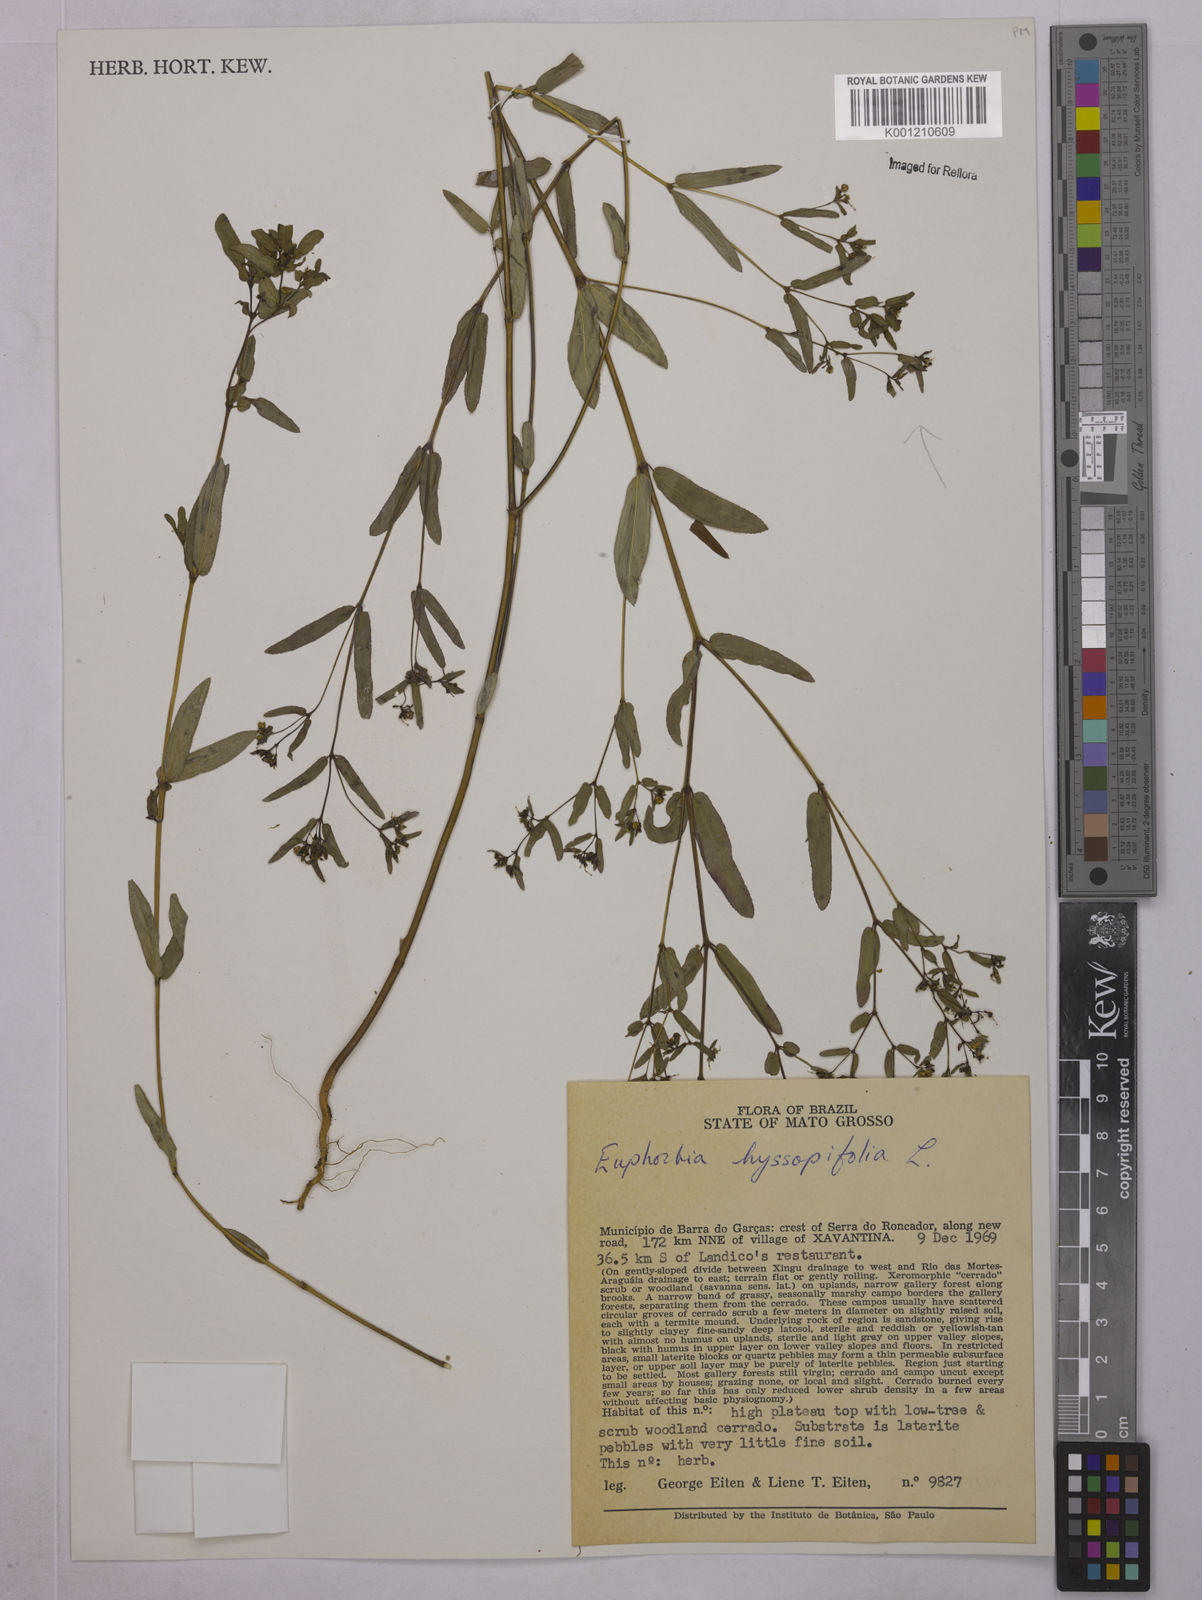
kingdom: Plantae
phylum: Tracheophyta
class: Magnoliopsida
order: Malpighiales
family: Euphorbiaceae
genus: Euphorbia
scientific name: Euphorbia hyssopifolia
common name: Hyssopleaf sandmat
